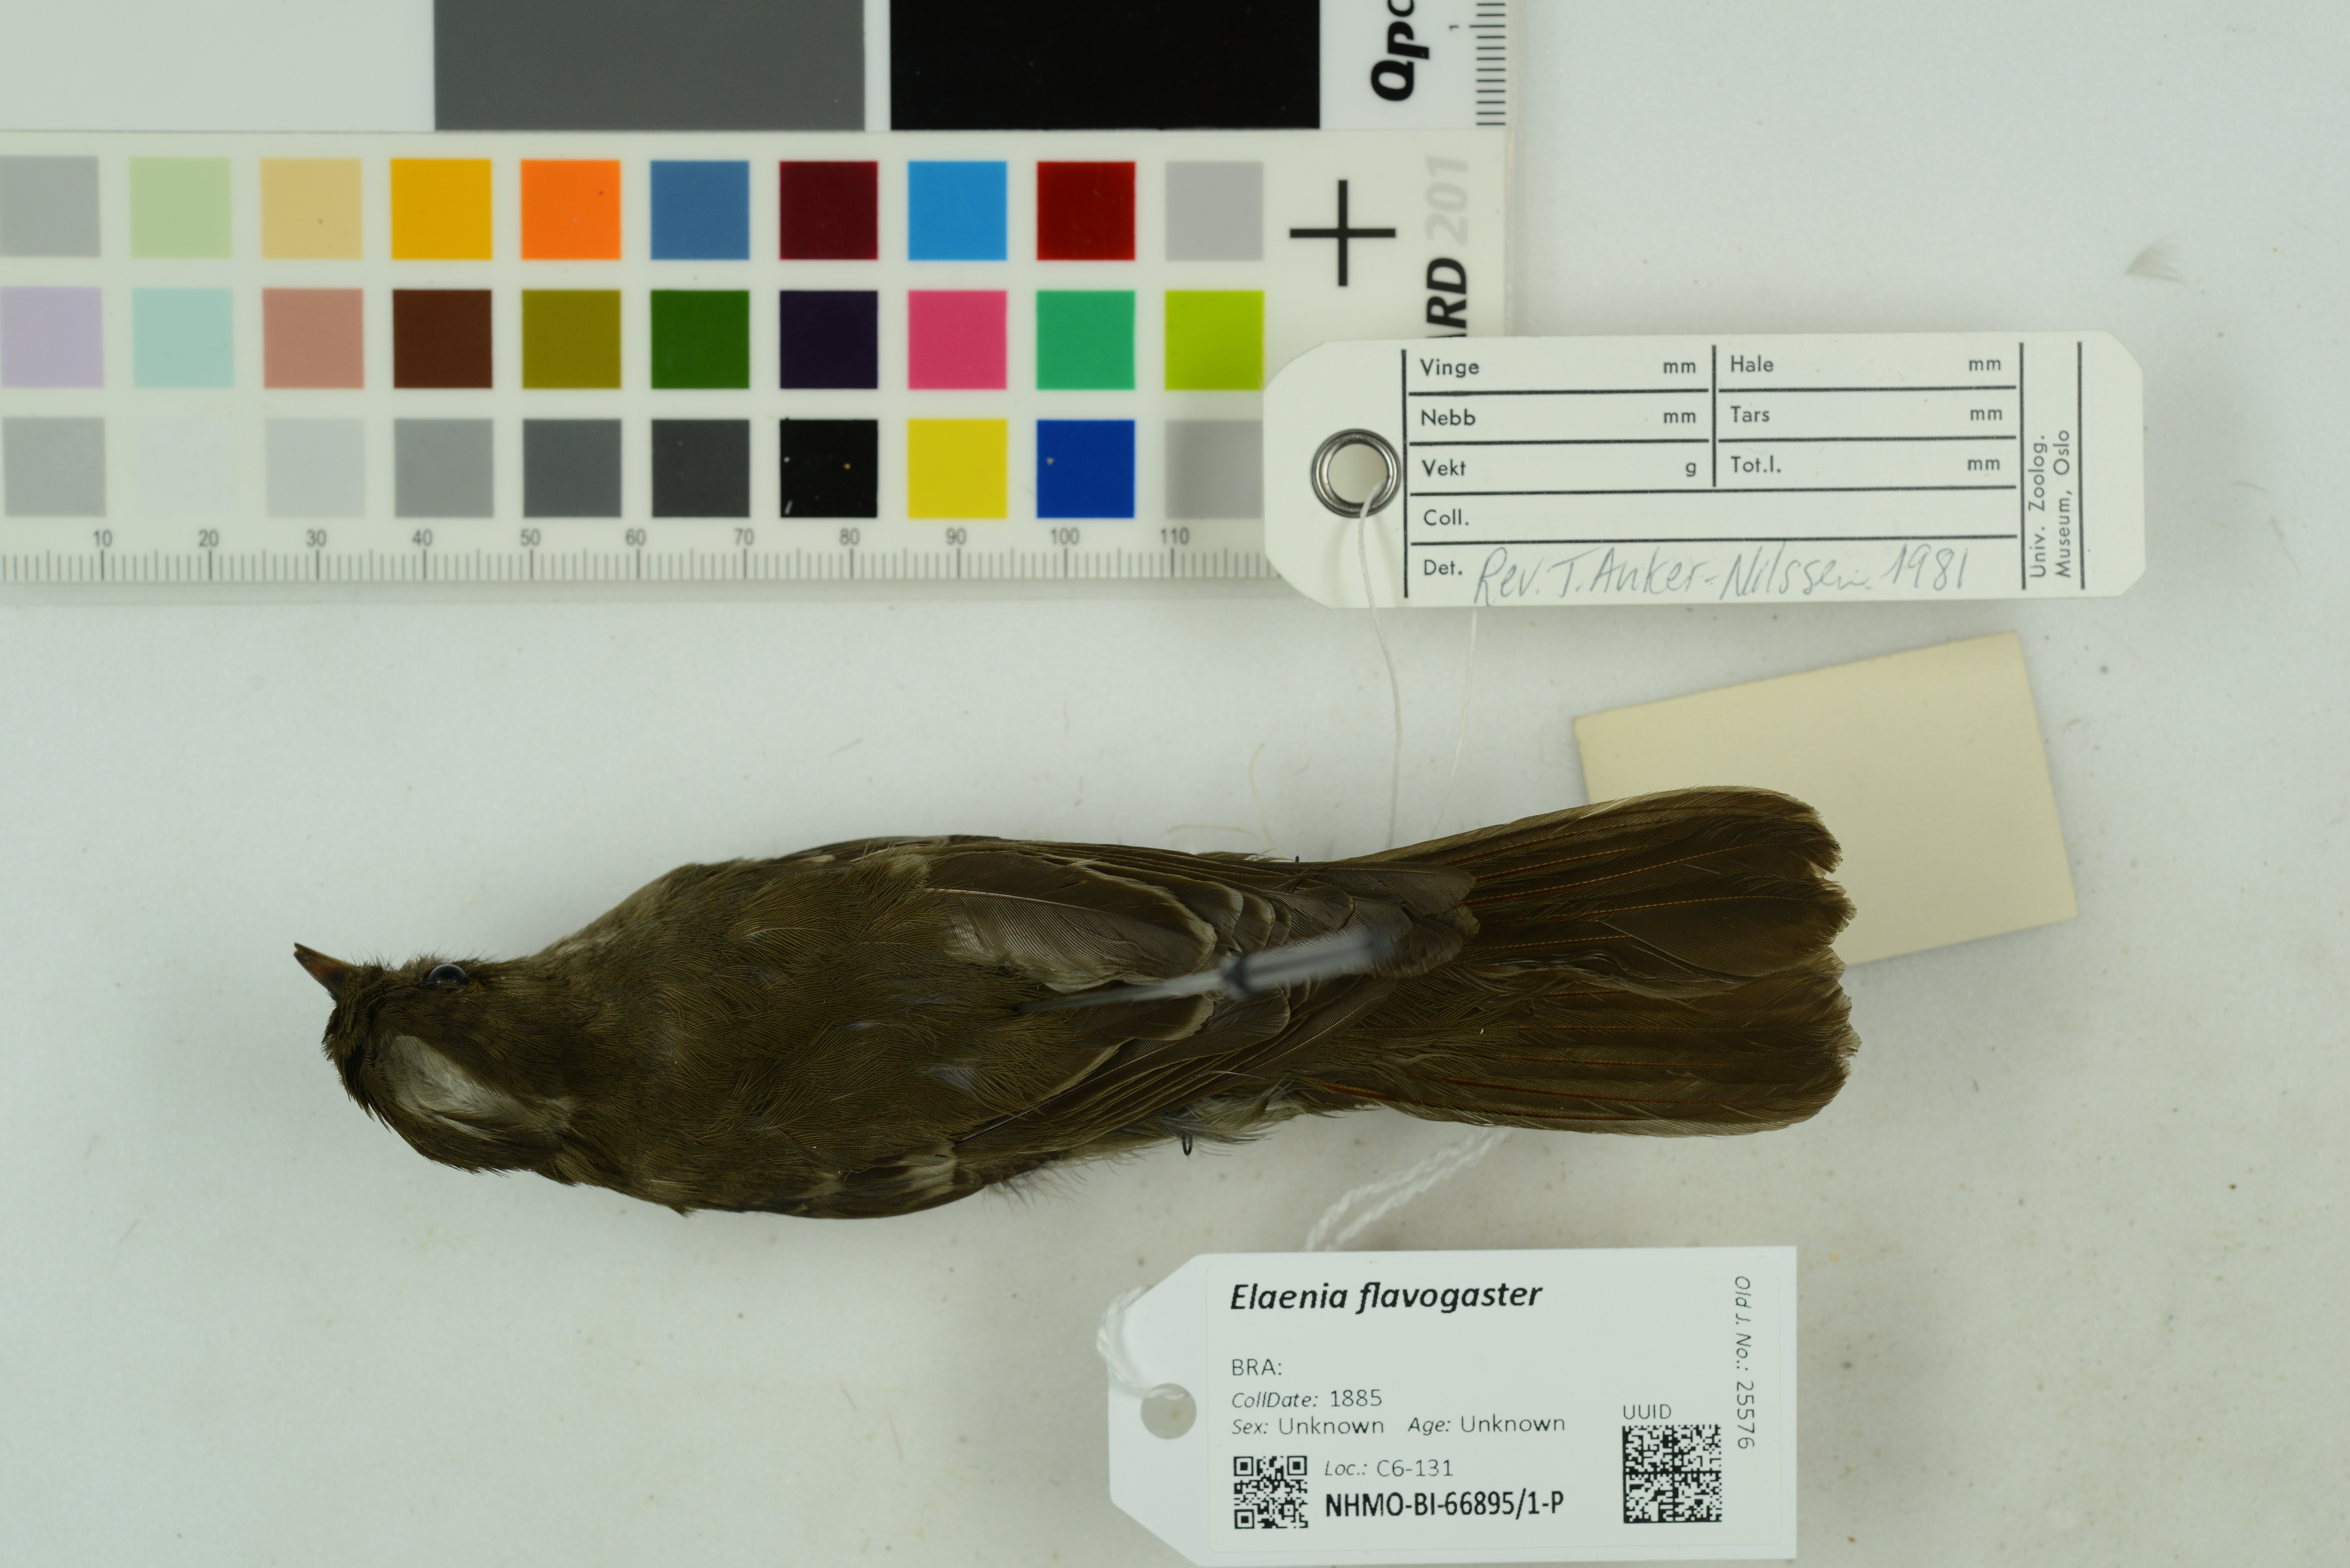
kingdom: Animalia
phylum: Chordata
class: Aves
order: Passeriformes
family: Tyrannidae
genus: Elaenia
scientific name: Elaenia flavogaster
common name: Yellow-bellied elaenia
